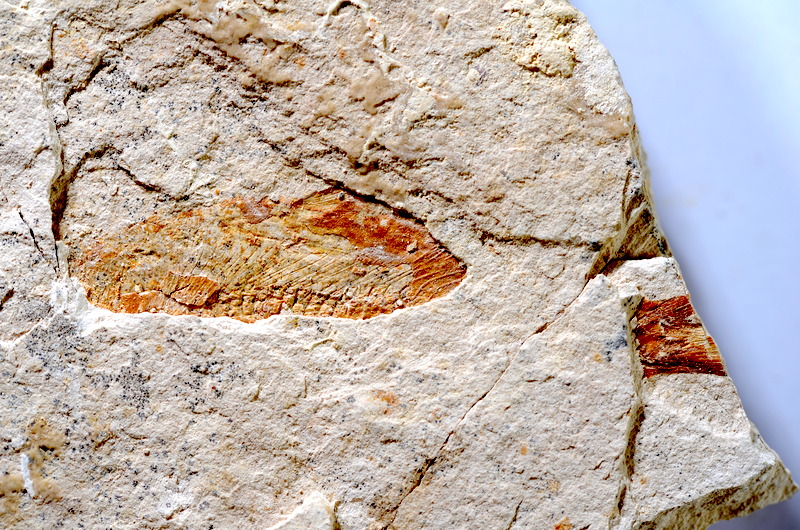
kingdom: Animalia
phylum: Chordata
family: Ascalaboidae
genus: Tharsis
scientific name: Tharsis dubius
